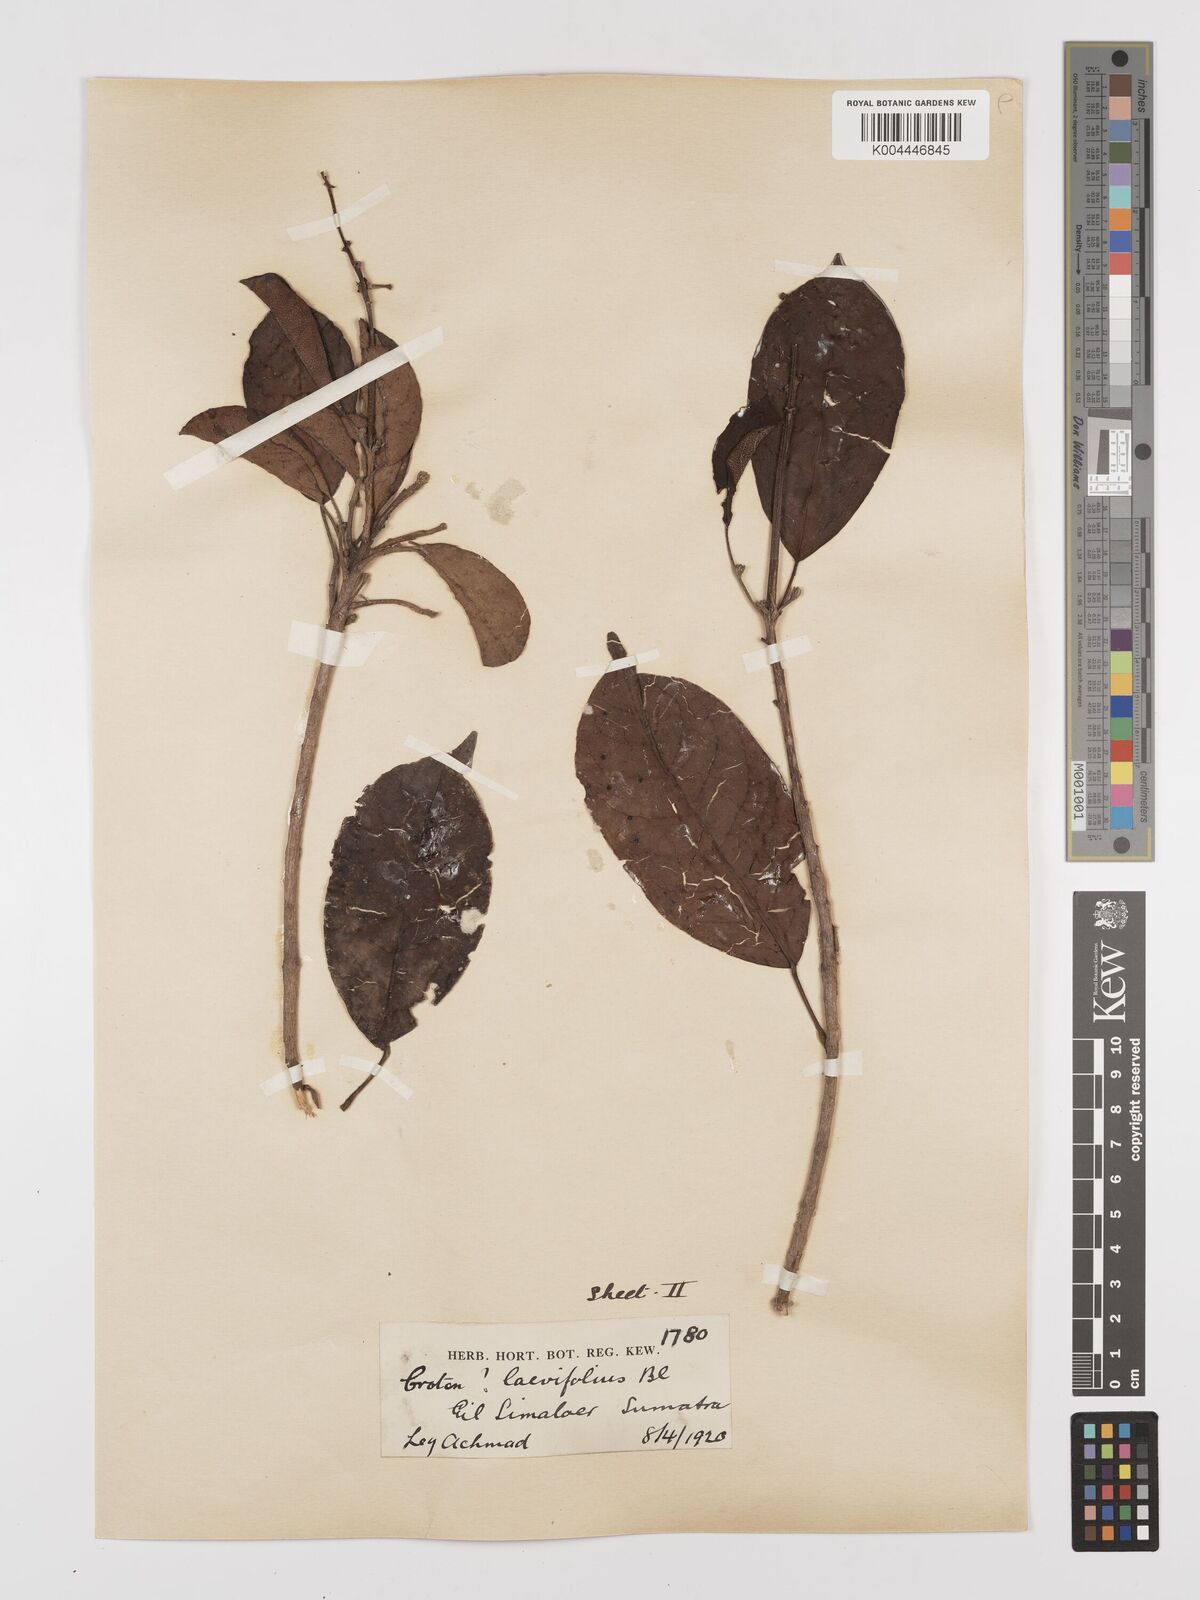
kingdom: Plantae
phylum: Tracheophyta
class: Magnoliopsida
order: Malpighiales
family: Euphorbiaceae
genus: Croton
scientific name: Croton oblongus
